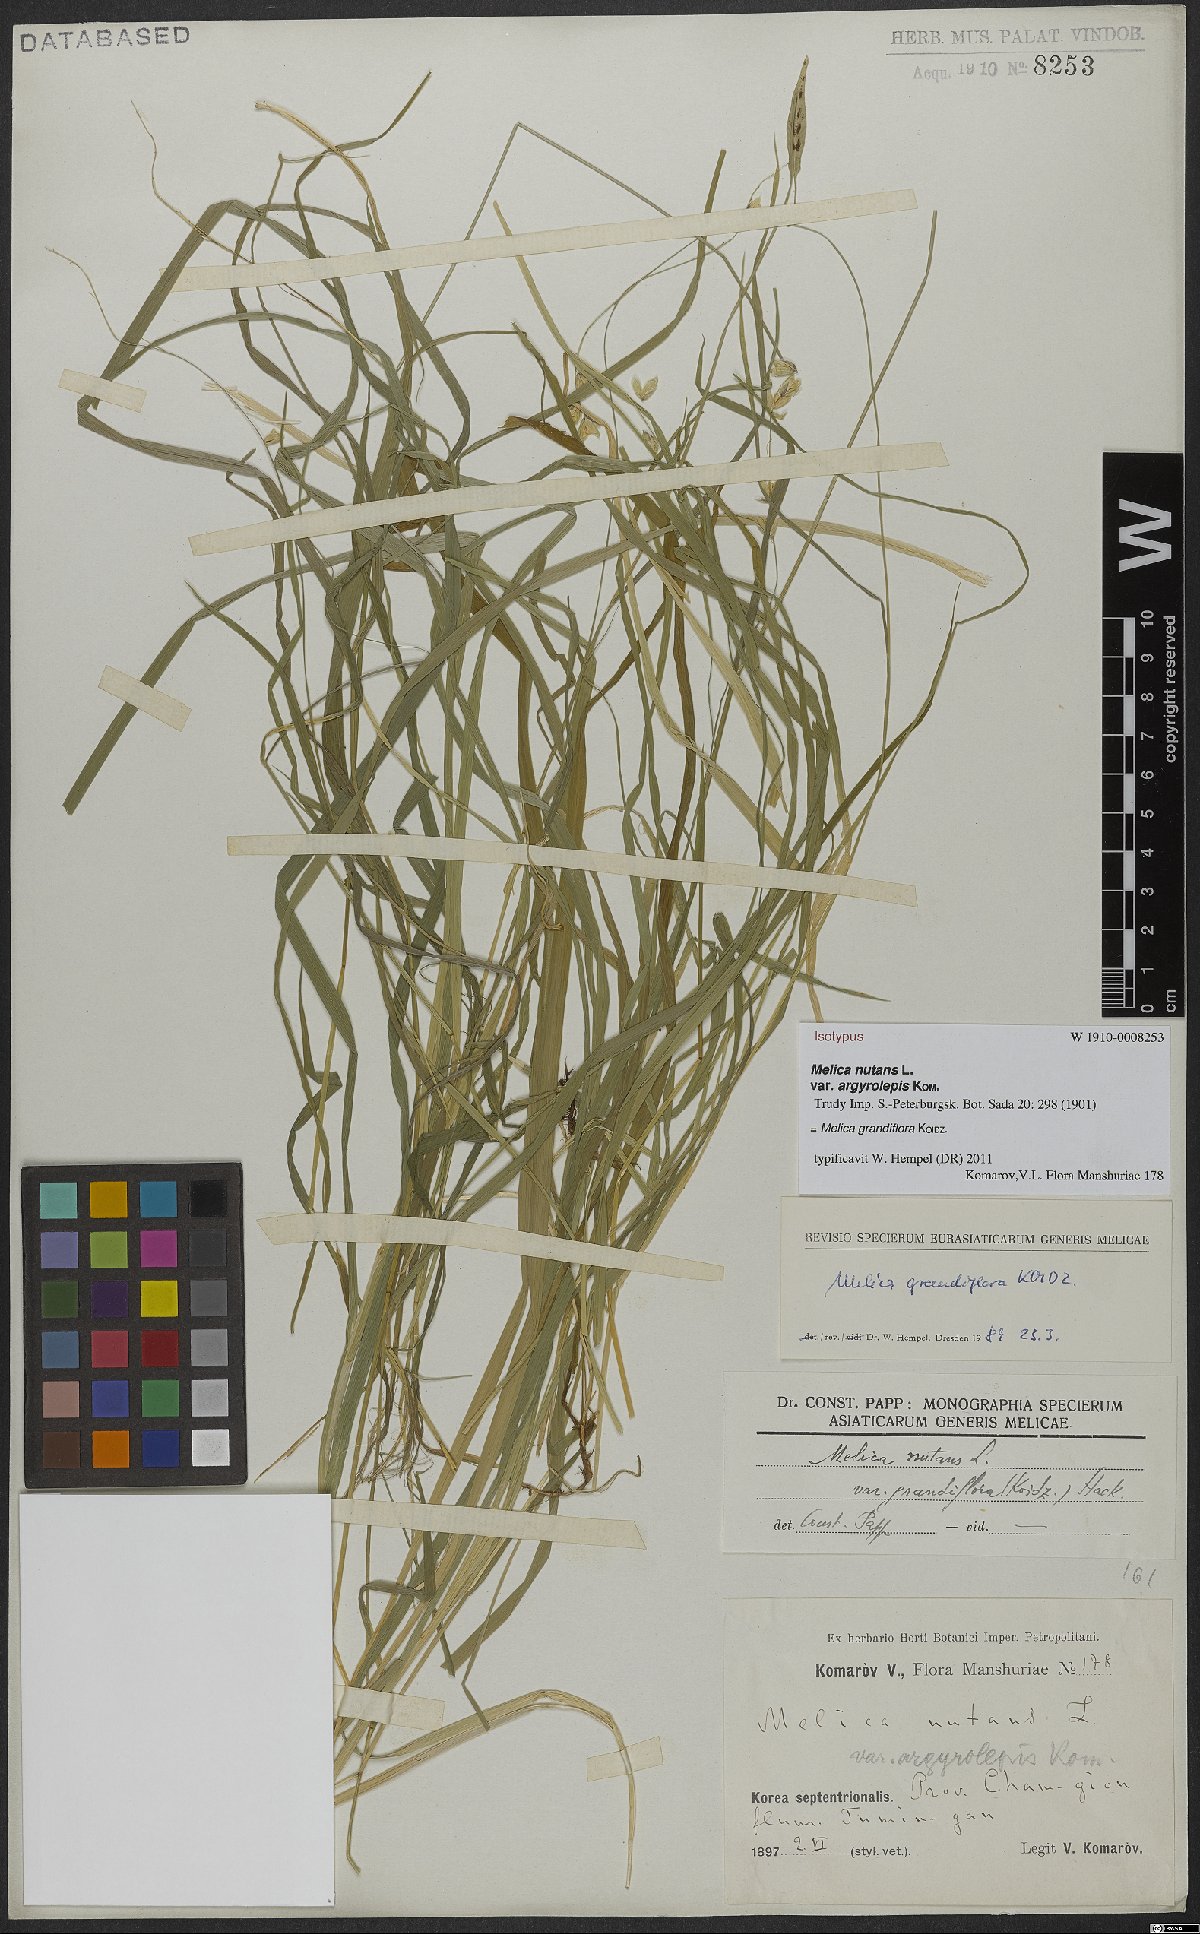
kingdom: Plantae
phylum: Tracheophyta
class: Liliopsida
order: Poales
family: Poaceae
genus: Melica
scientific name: Melica nutans
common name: Mountain melick
